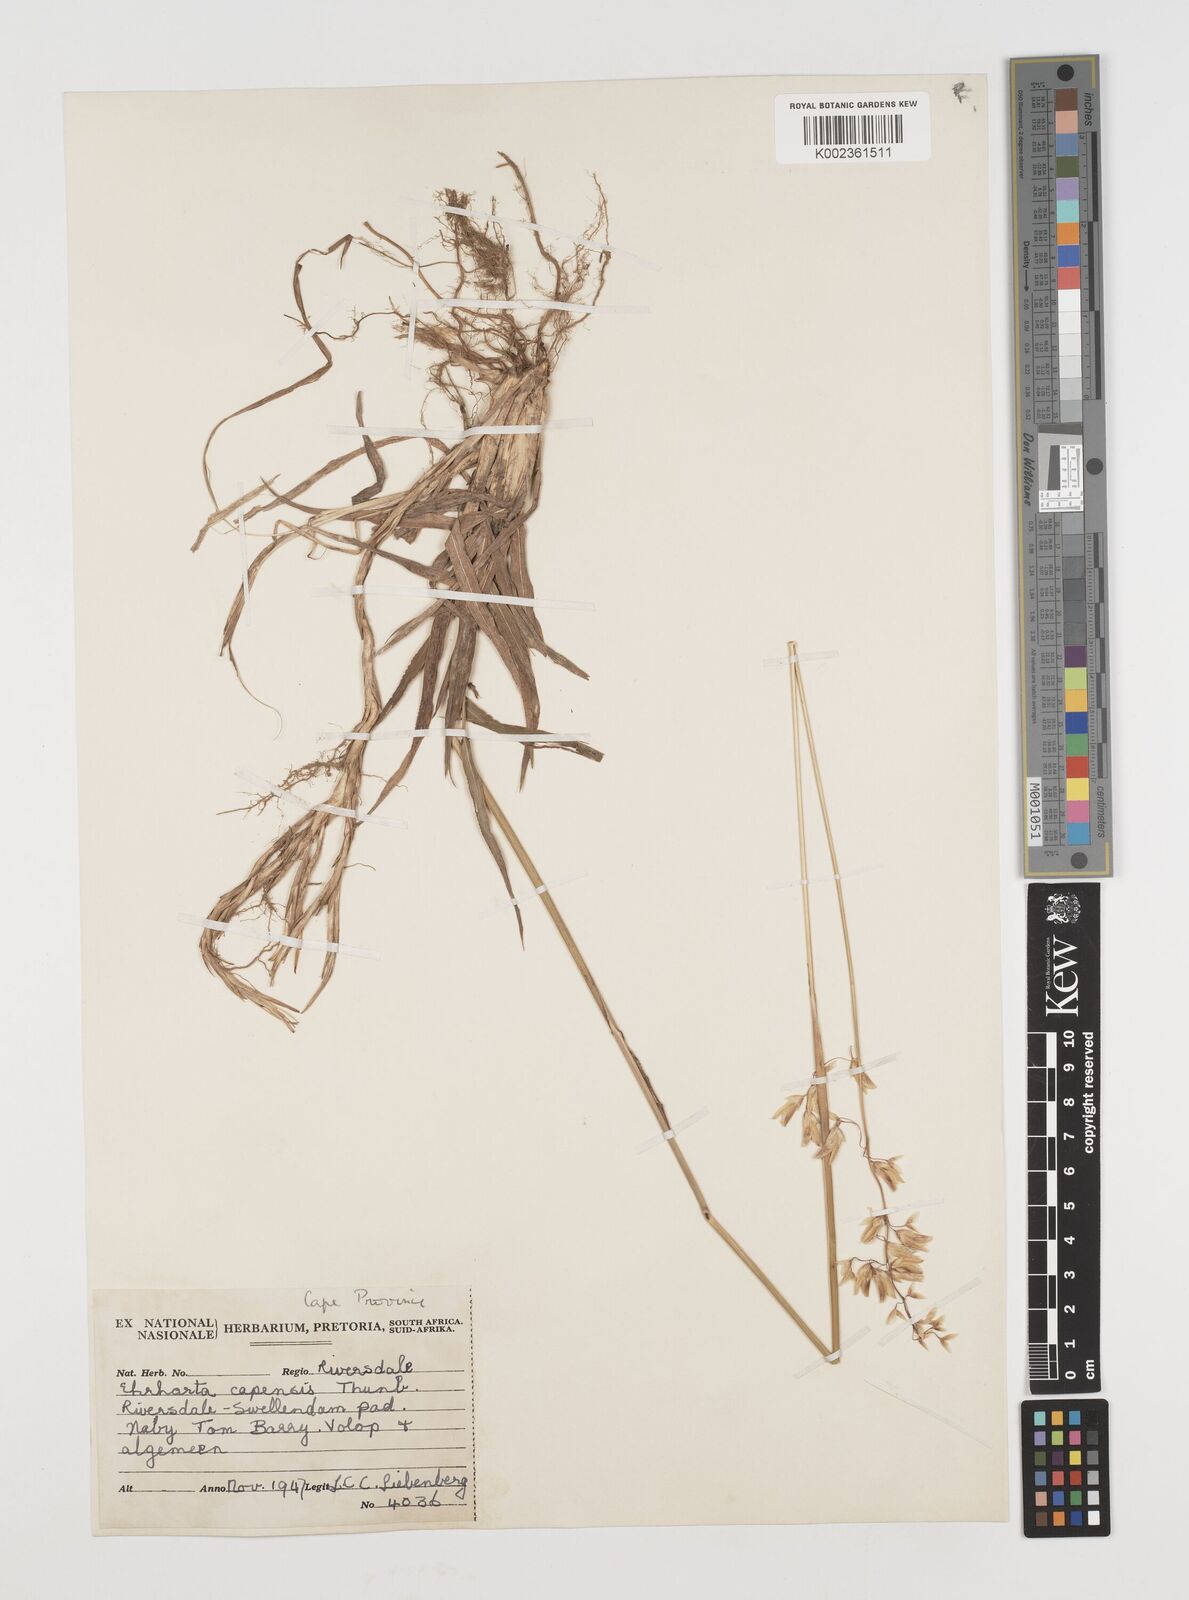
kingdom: Plantae
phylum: Tracheophyta
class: Liliopsida
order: Poales
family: Poaceae
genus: Ehrharta
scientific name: Ehrharta capensis
